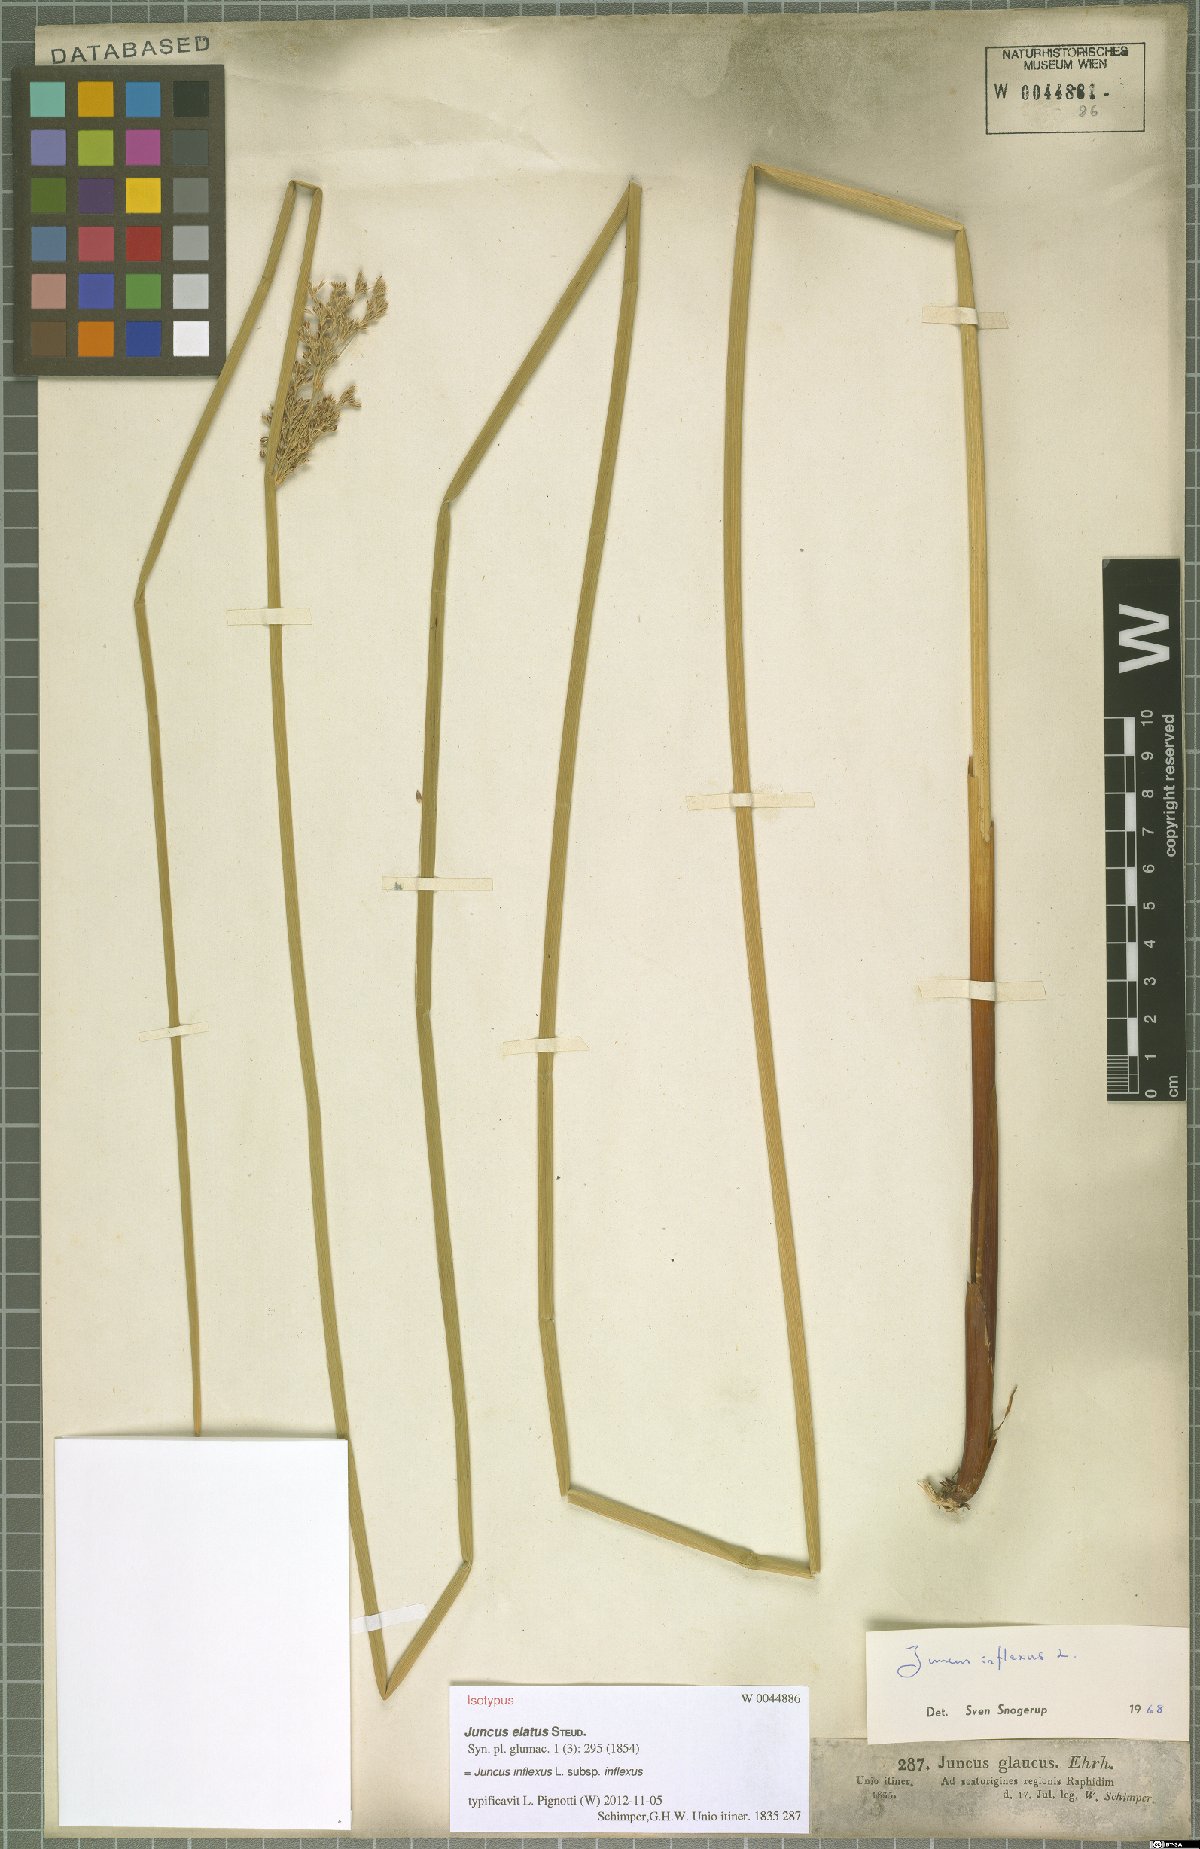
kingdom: Plantae
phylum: Tracheophyta
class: Liliopsida
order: Poales
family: Juncaceae
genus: Juncus
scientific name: Juncus inflexus
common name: Hard rush
